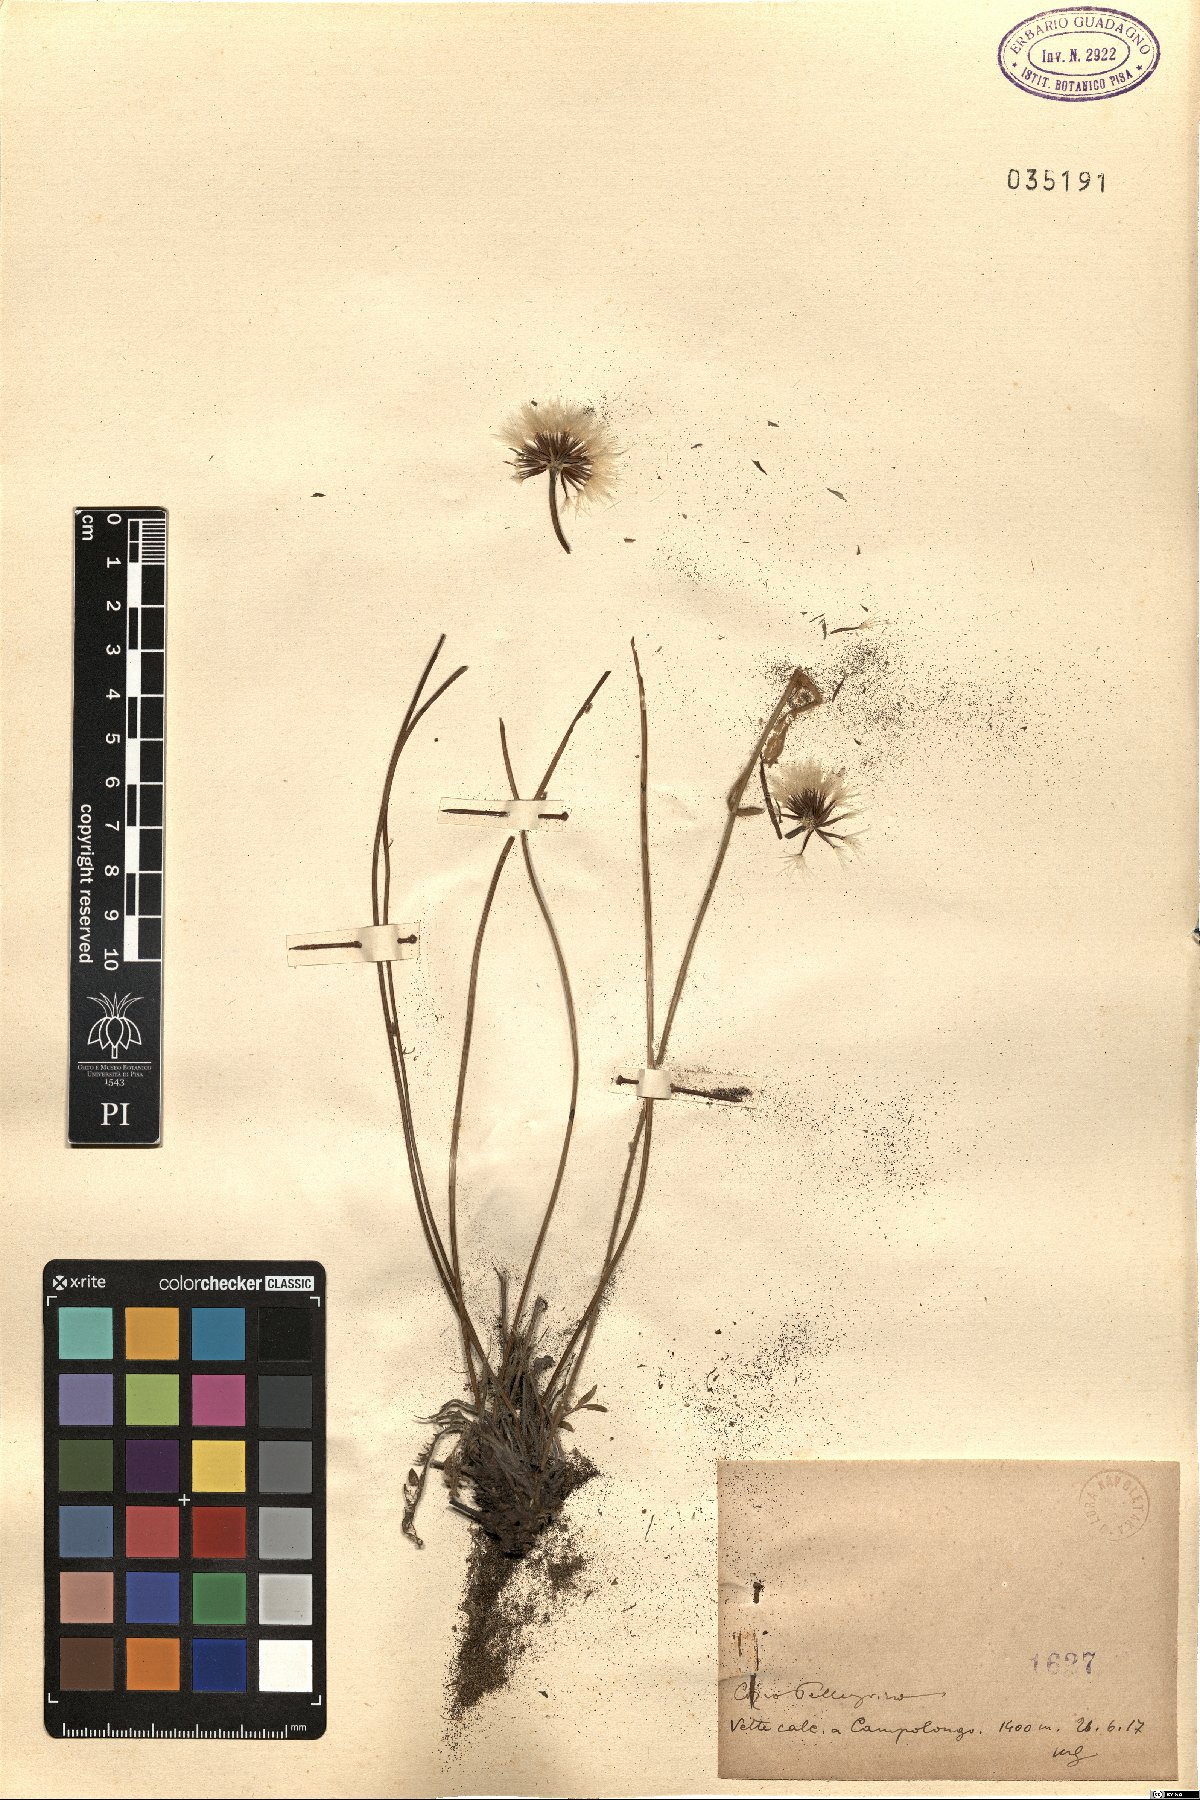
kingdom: Plantae
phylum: Tracheophyta
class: Magnoliopsida
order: Asterales
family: Asteraceae
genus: Thrincia
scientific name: Thrincia
